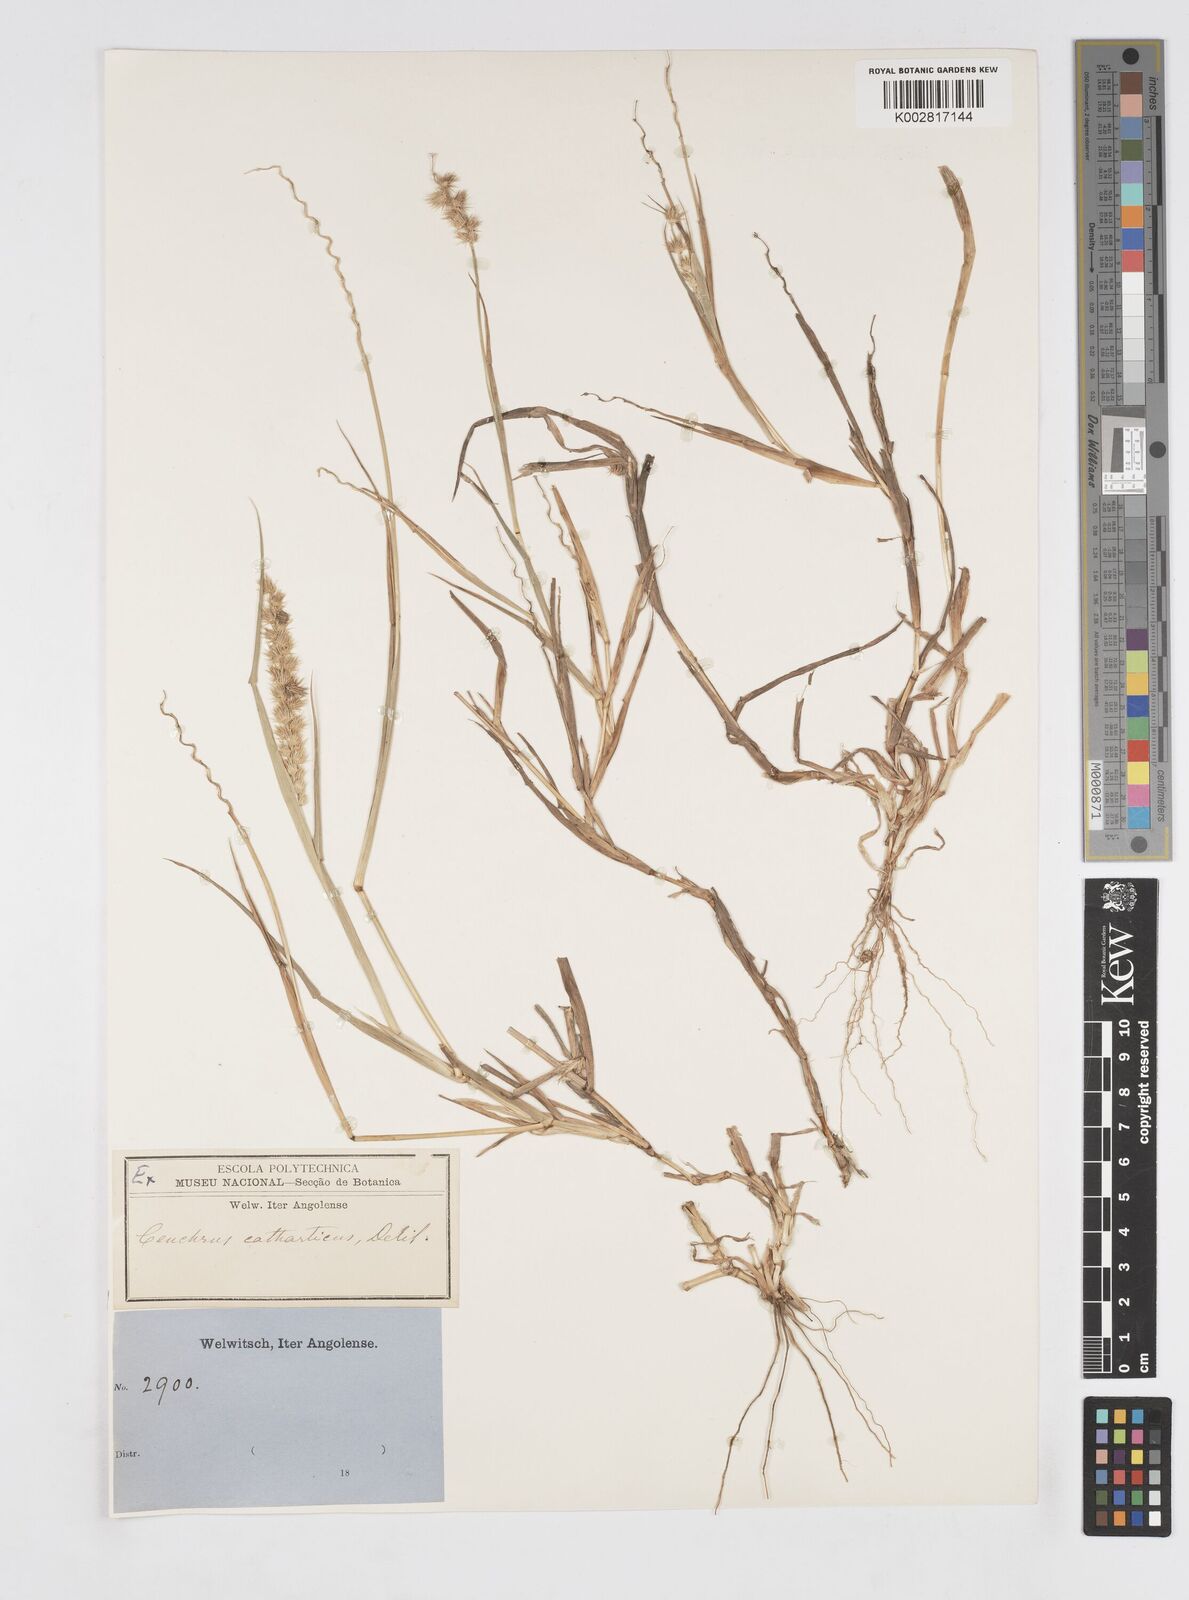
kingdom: Plantae
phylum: Tracheophyta
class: Liliopsida
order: Poales
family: Poaceae
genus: Cenchrus
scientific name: Cenchrus biflorus
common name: Indian sandbur
